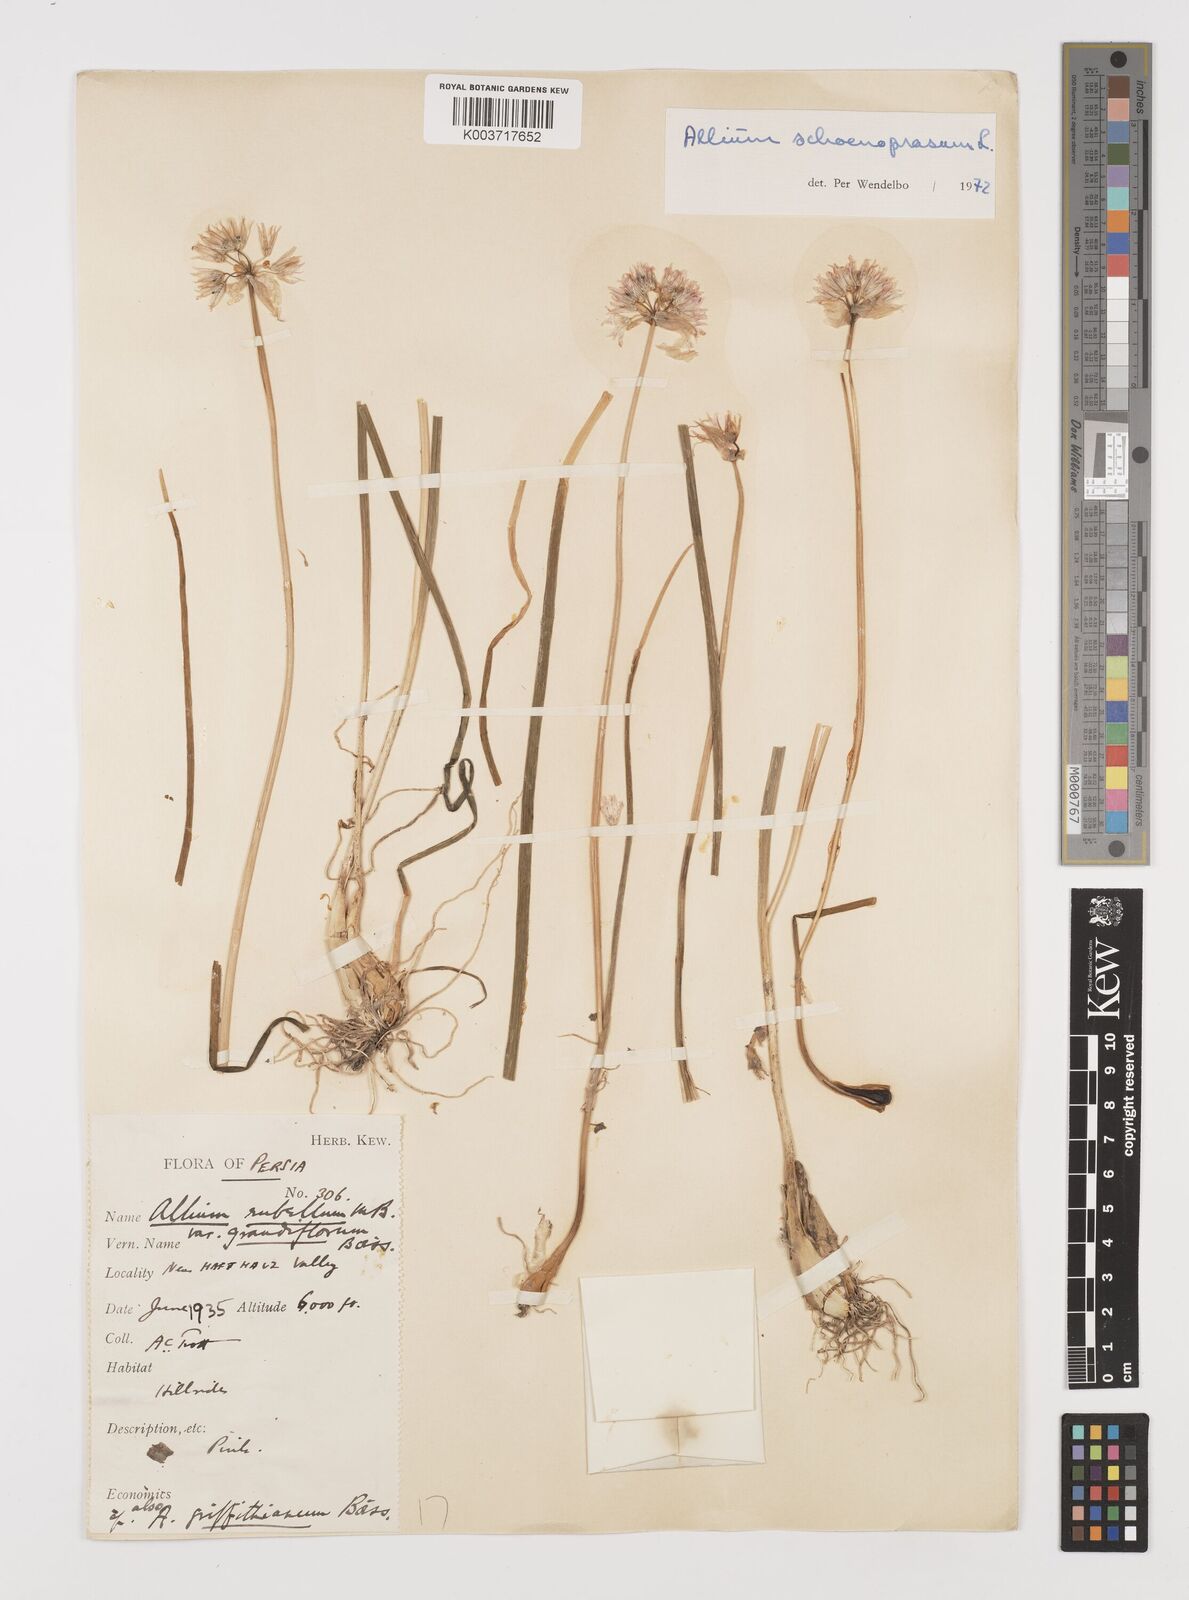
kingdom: Plantae
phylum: Tracheophyta
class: Liliopsida
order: Asparagales
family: Amaryllidaceae
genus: Allium
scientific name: Allium schoenoprasum
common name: Chives
